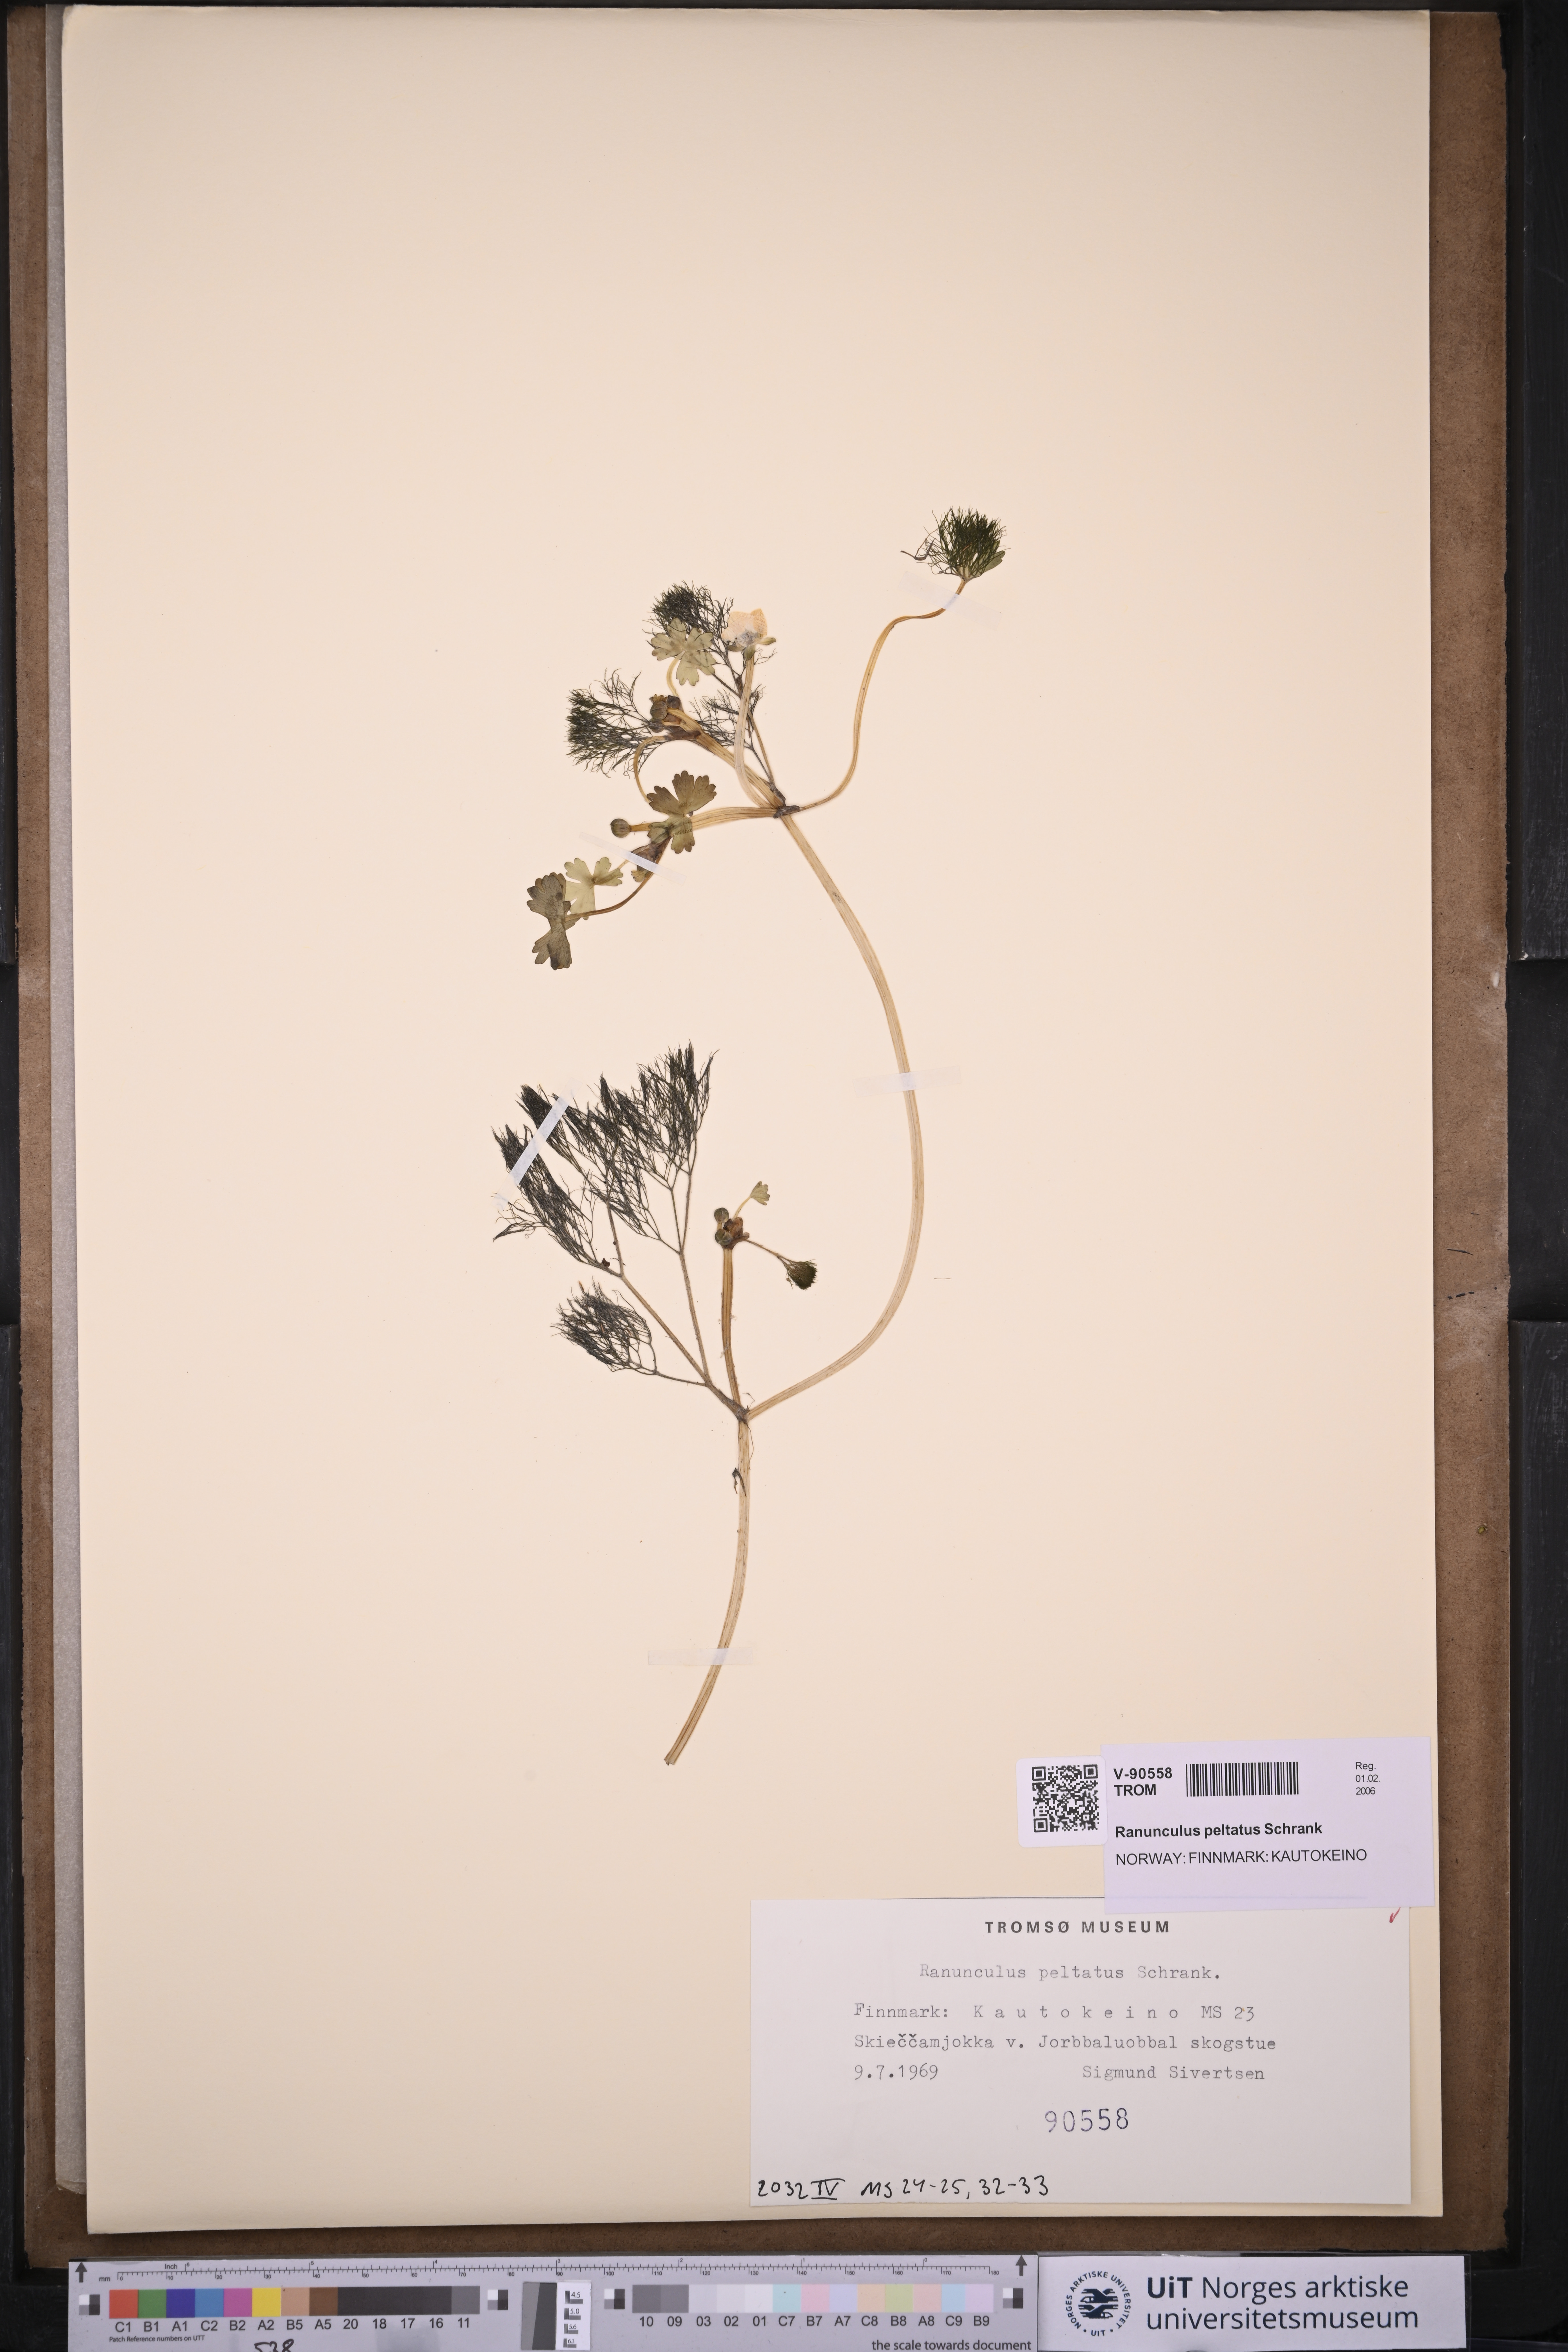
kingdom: Plantae
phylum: Tracheophyta
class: Magnoliopsida
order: Ranunculales
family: Ranunculaceae
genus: Ranunculus
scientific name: Ranunculus peltatus
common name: Pond water-crowfoot
